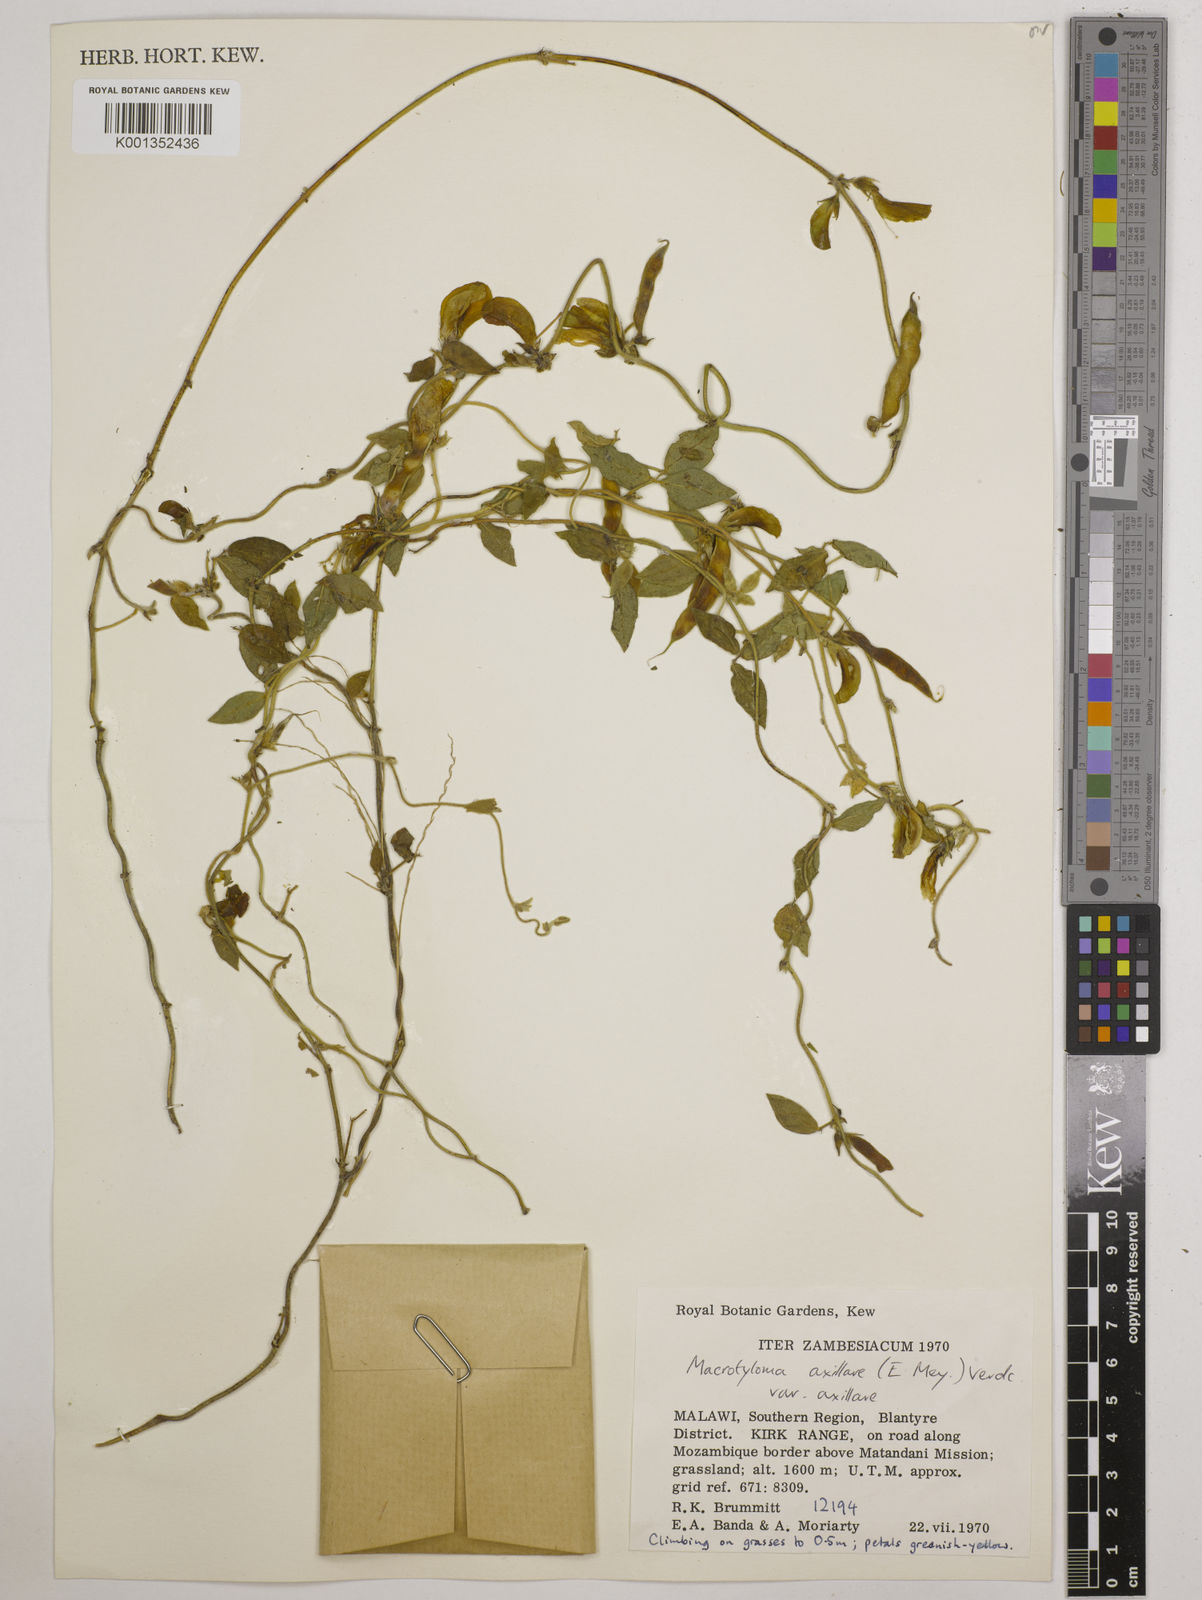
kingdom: Plantae
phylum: Tracheophyta
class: Magnoliopsida
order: Fabales
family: Fabaceae
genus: Macrotyloma
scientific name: Macrotyloma axillare
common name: Perennial horsegram
